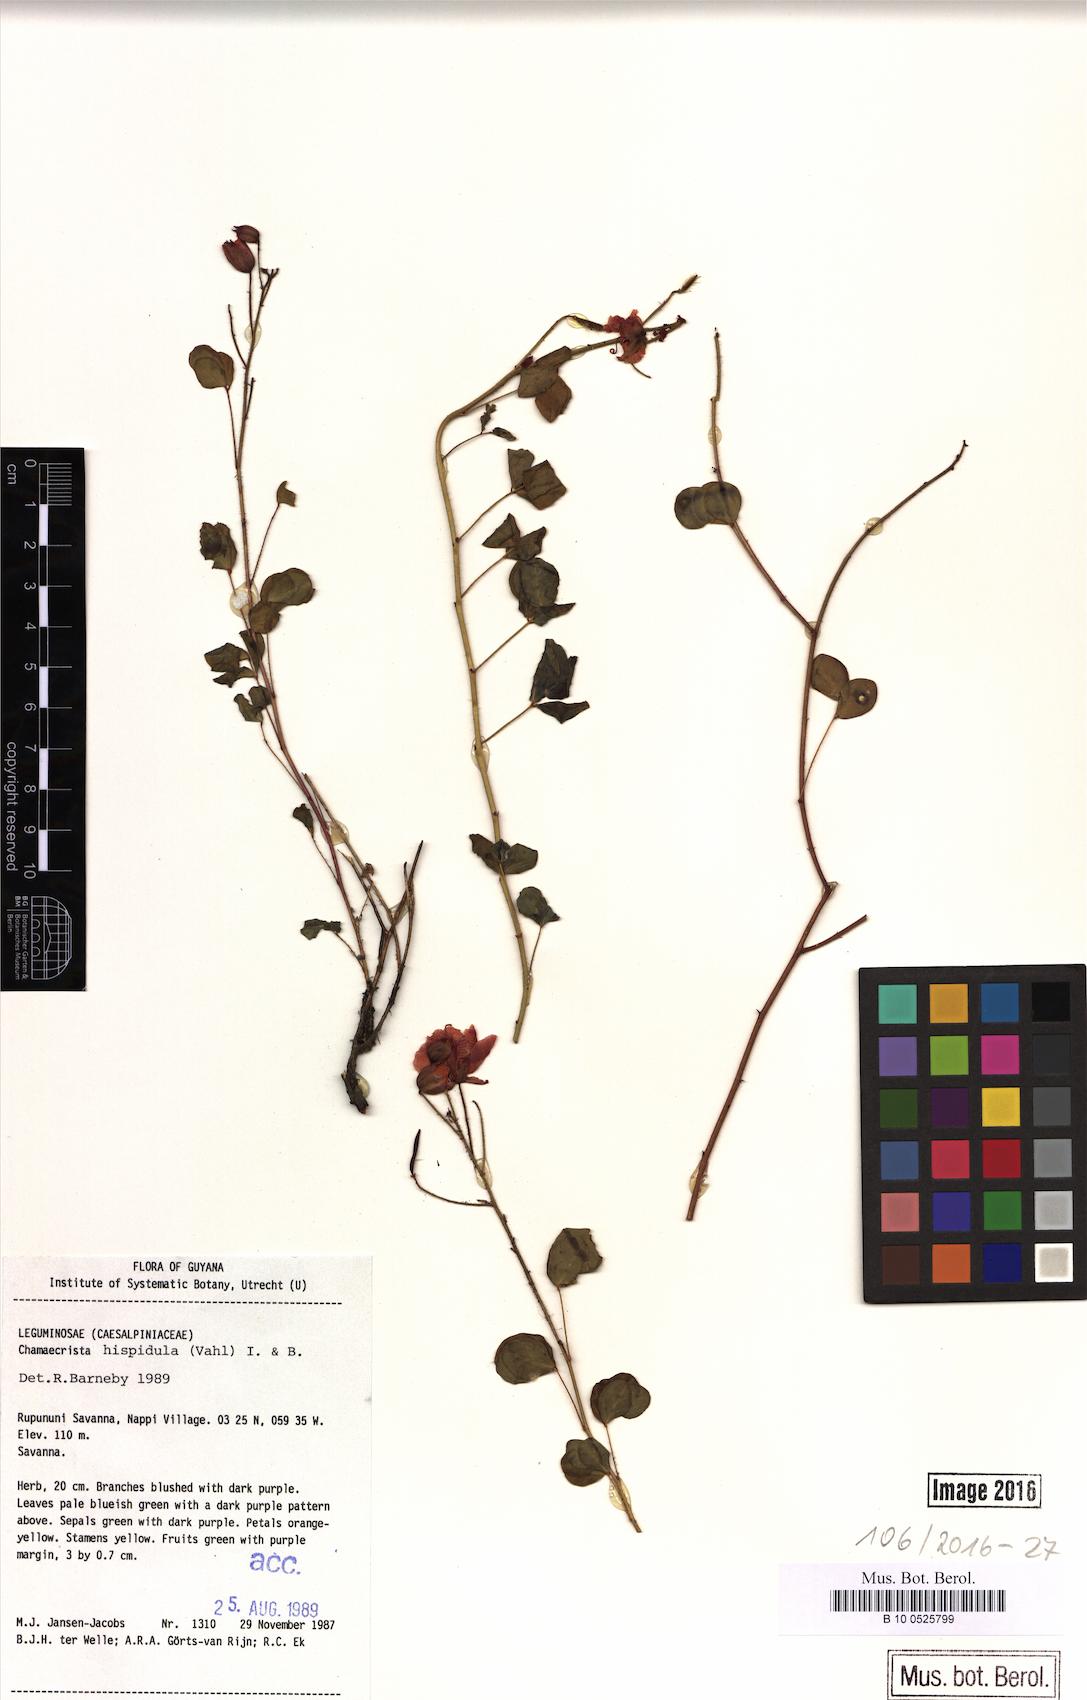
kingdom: Plantae
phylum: Tracheophyta
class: Magnoliopsida
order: Fabales
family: Fabaceae
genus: Chamaecrista
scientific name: Chamaecrista hispidula
